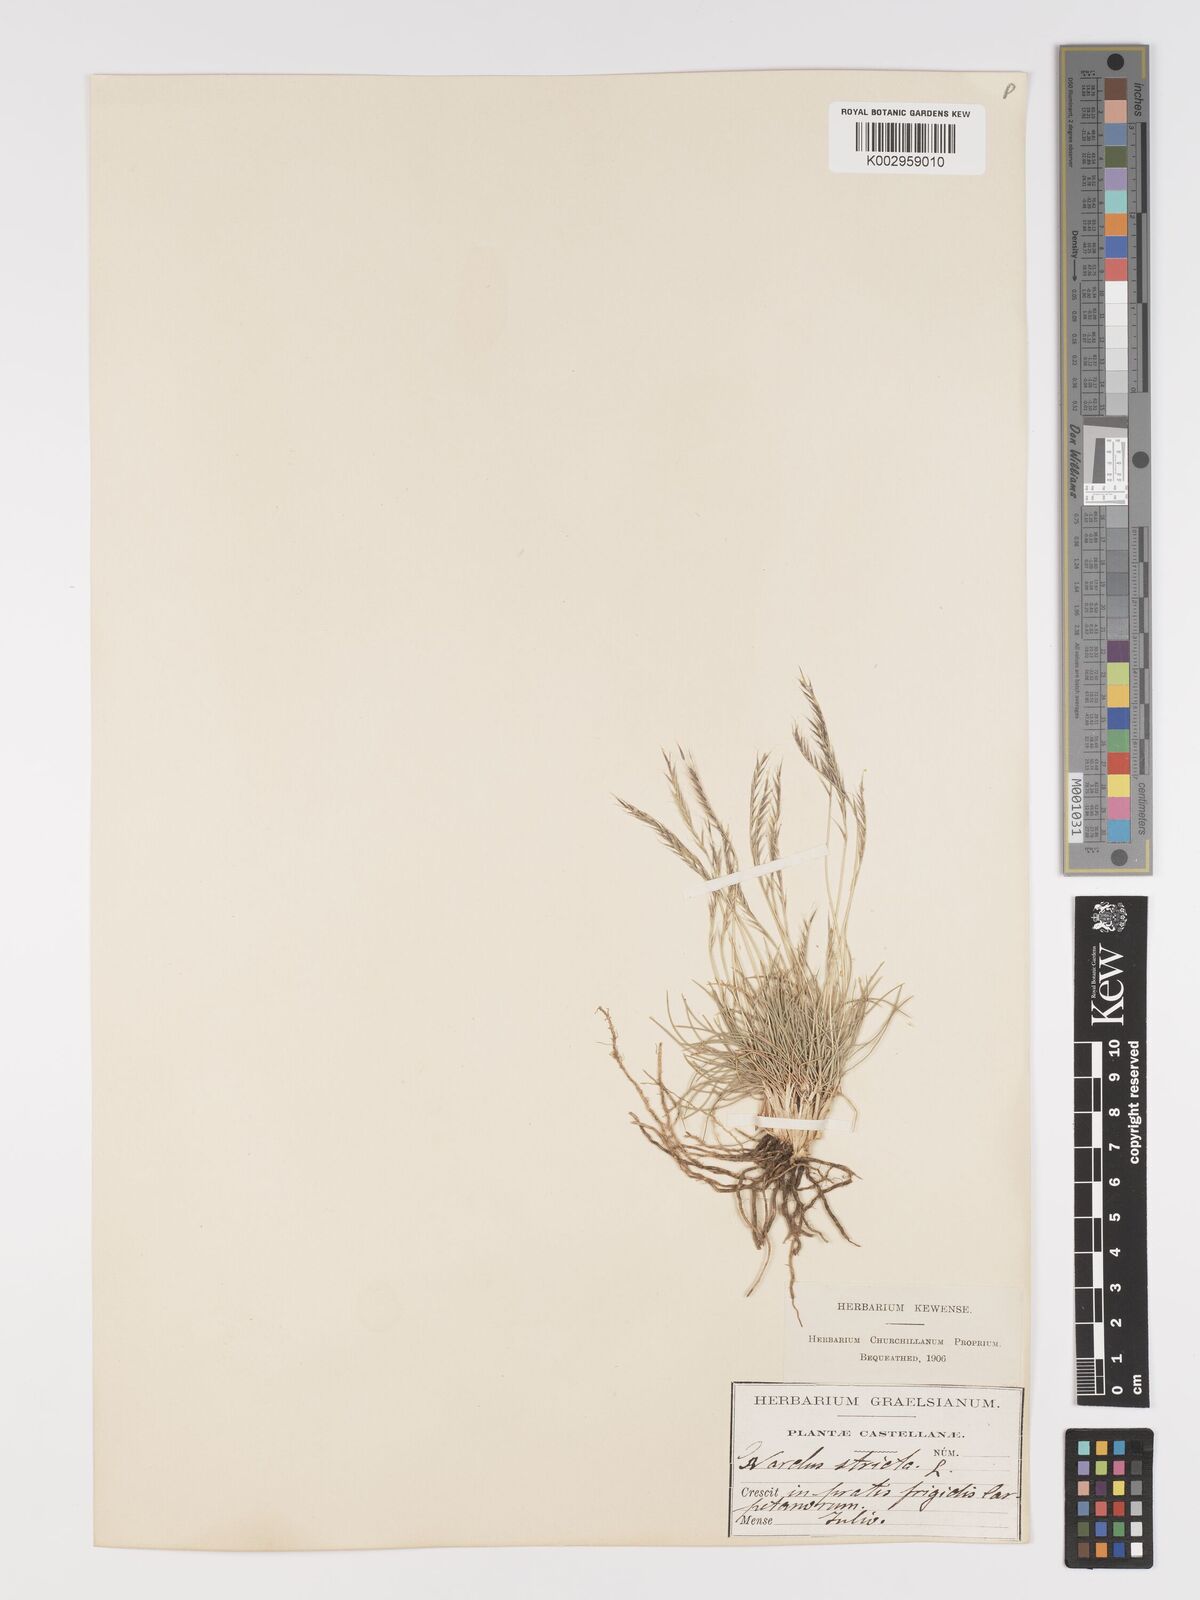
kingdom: Plantae
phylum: Tracheophyta
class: Liliopsida
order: Poales
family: Poaceae
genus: Nardus
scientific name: Nardus stricta
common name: Mat-grass
